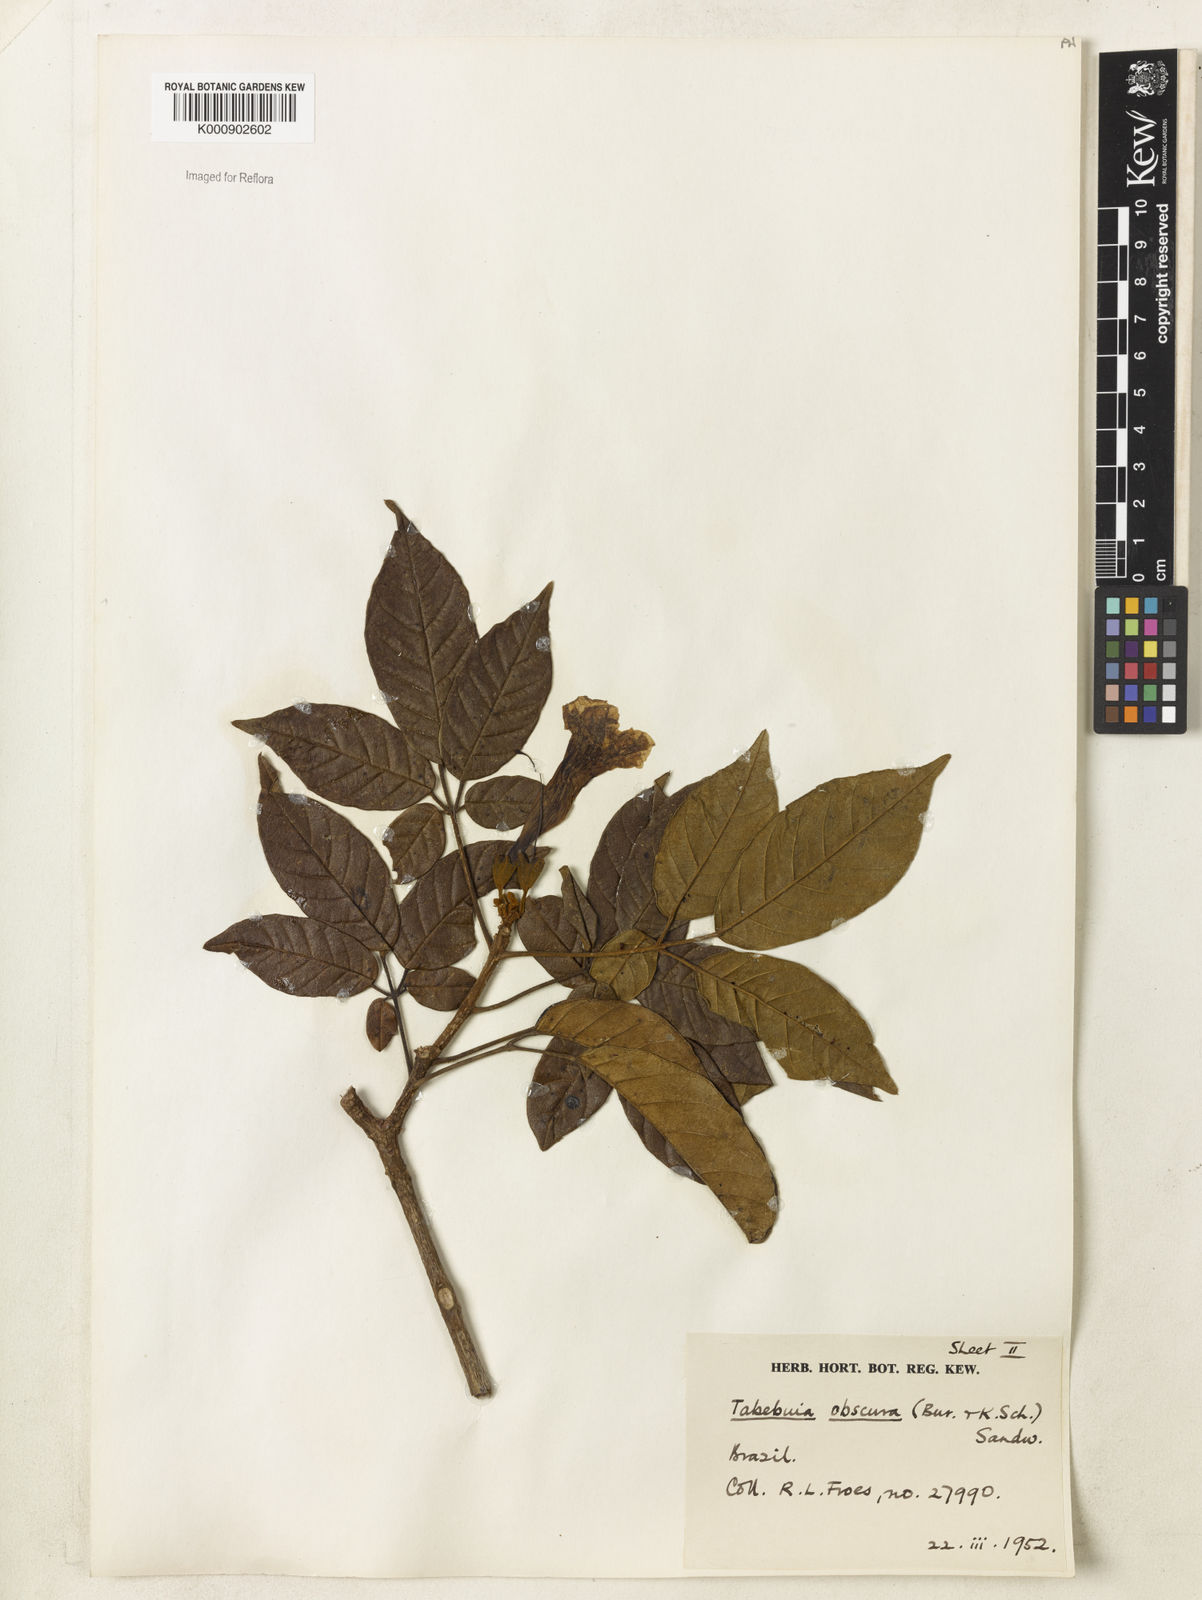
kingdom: Plantae
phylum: Tracheophyta
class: Magnoliopsida
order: Lamiales
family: Bignoniaceae
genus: Handroanthus
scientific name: Handroanthus obscurus
